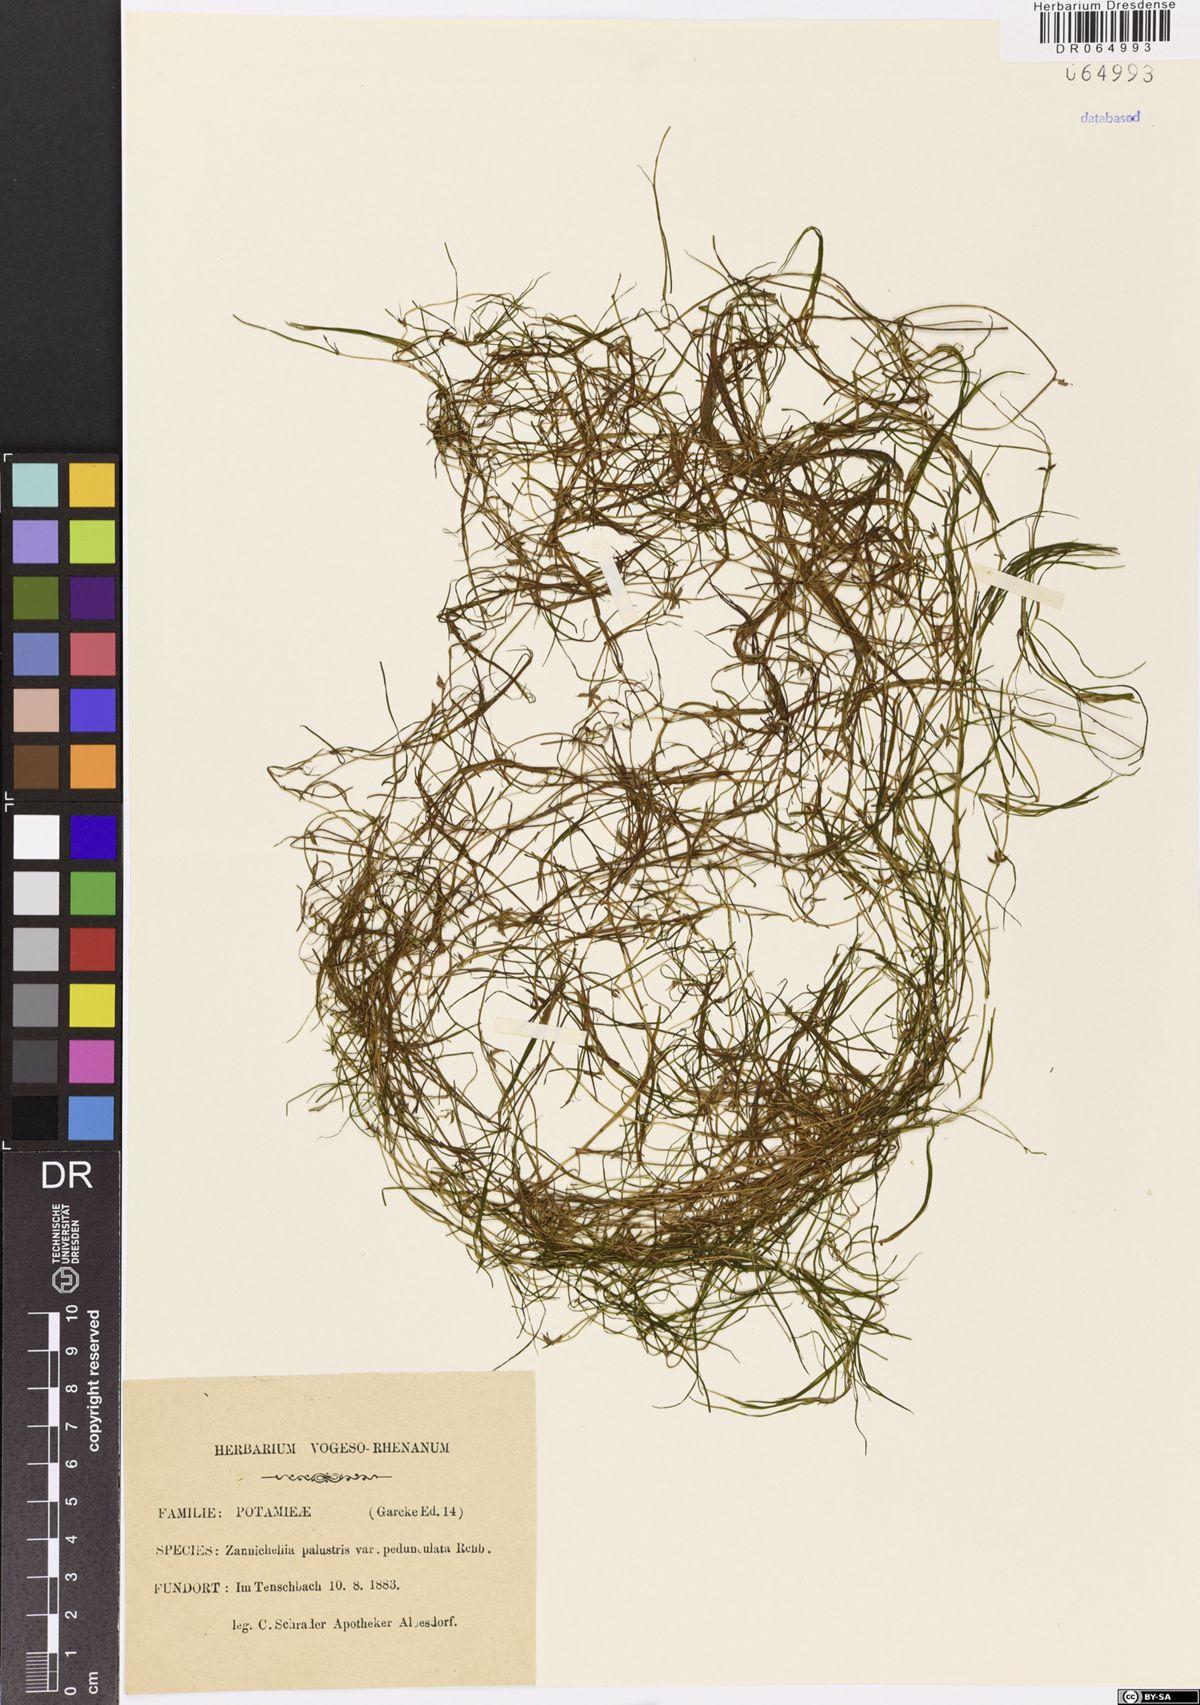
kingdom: Plantae
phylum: Tracheophyta
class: Liliopsida
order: Alismatales
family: Potamogetonaceae
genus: Zannichellia
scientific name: Zannichellia palustris
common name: Horned pondweed
